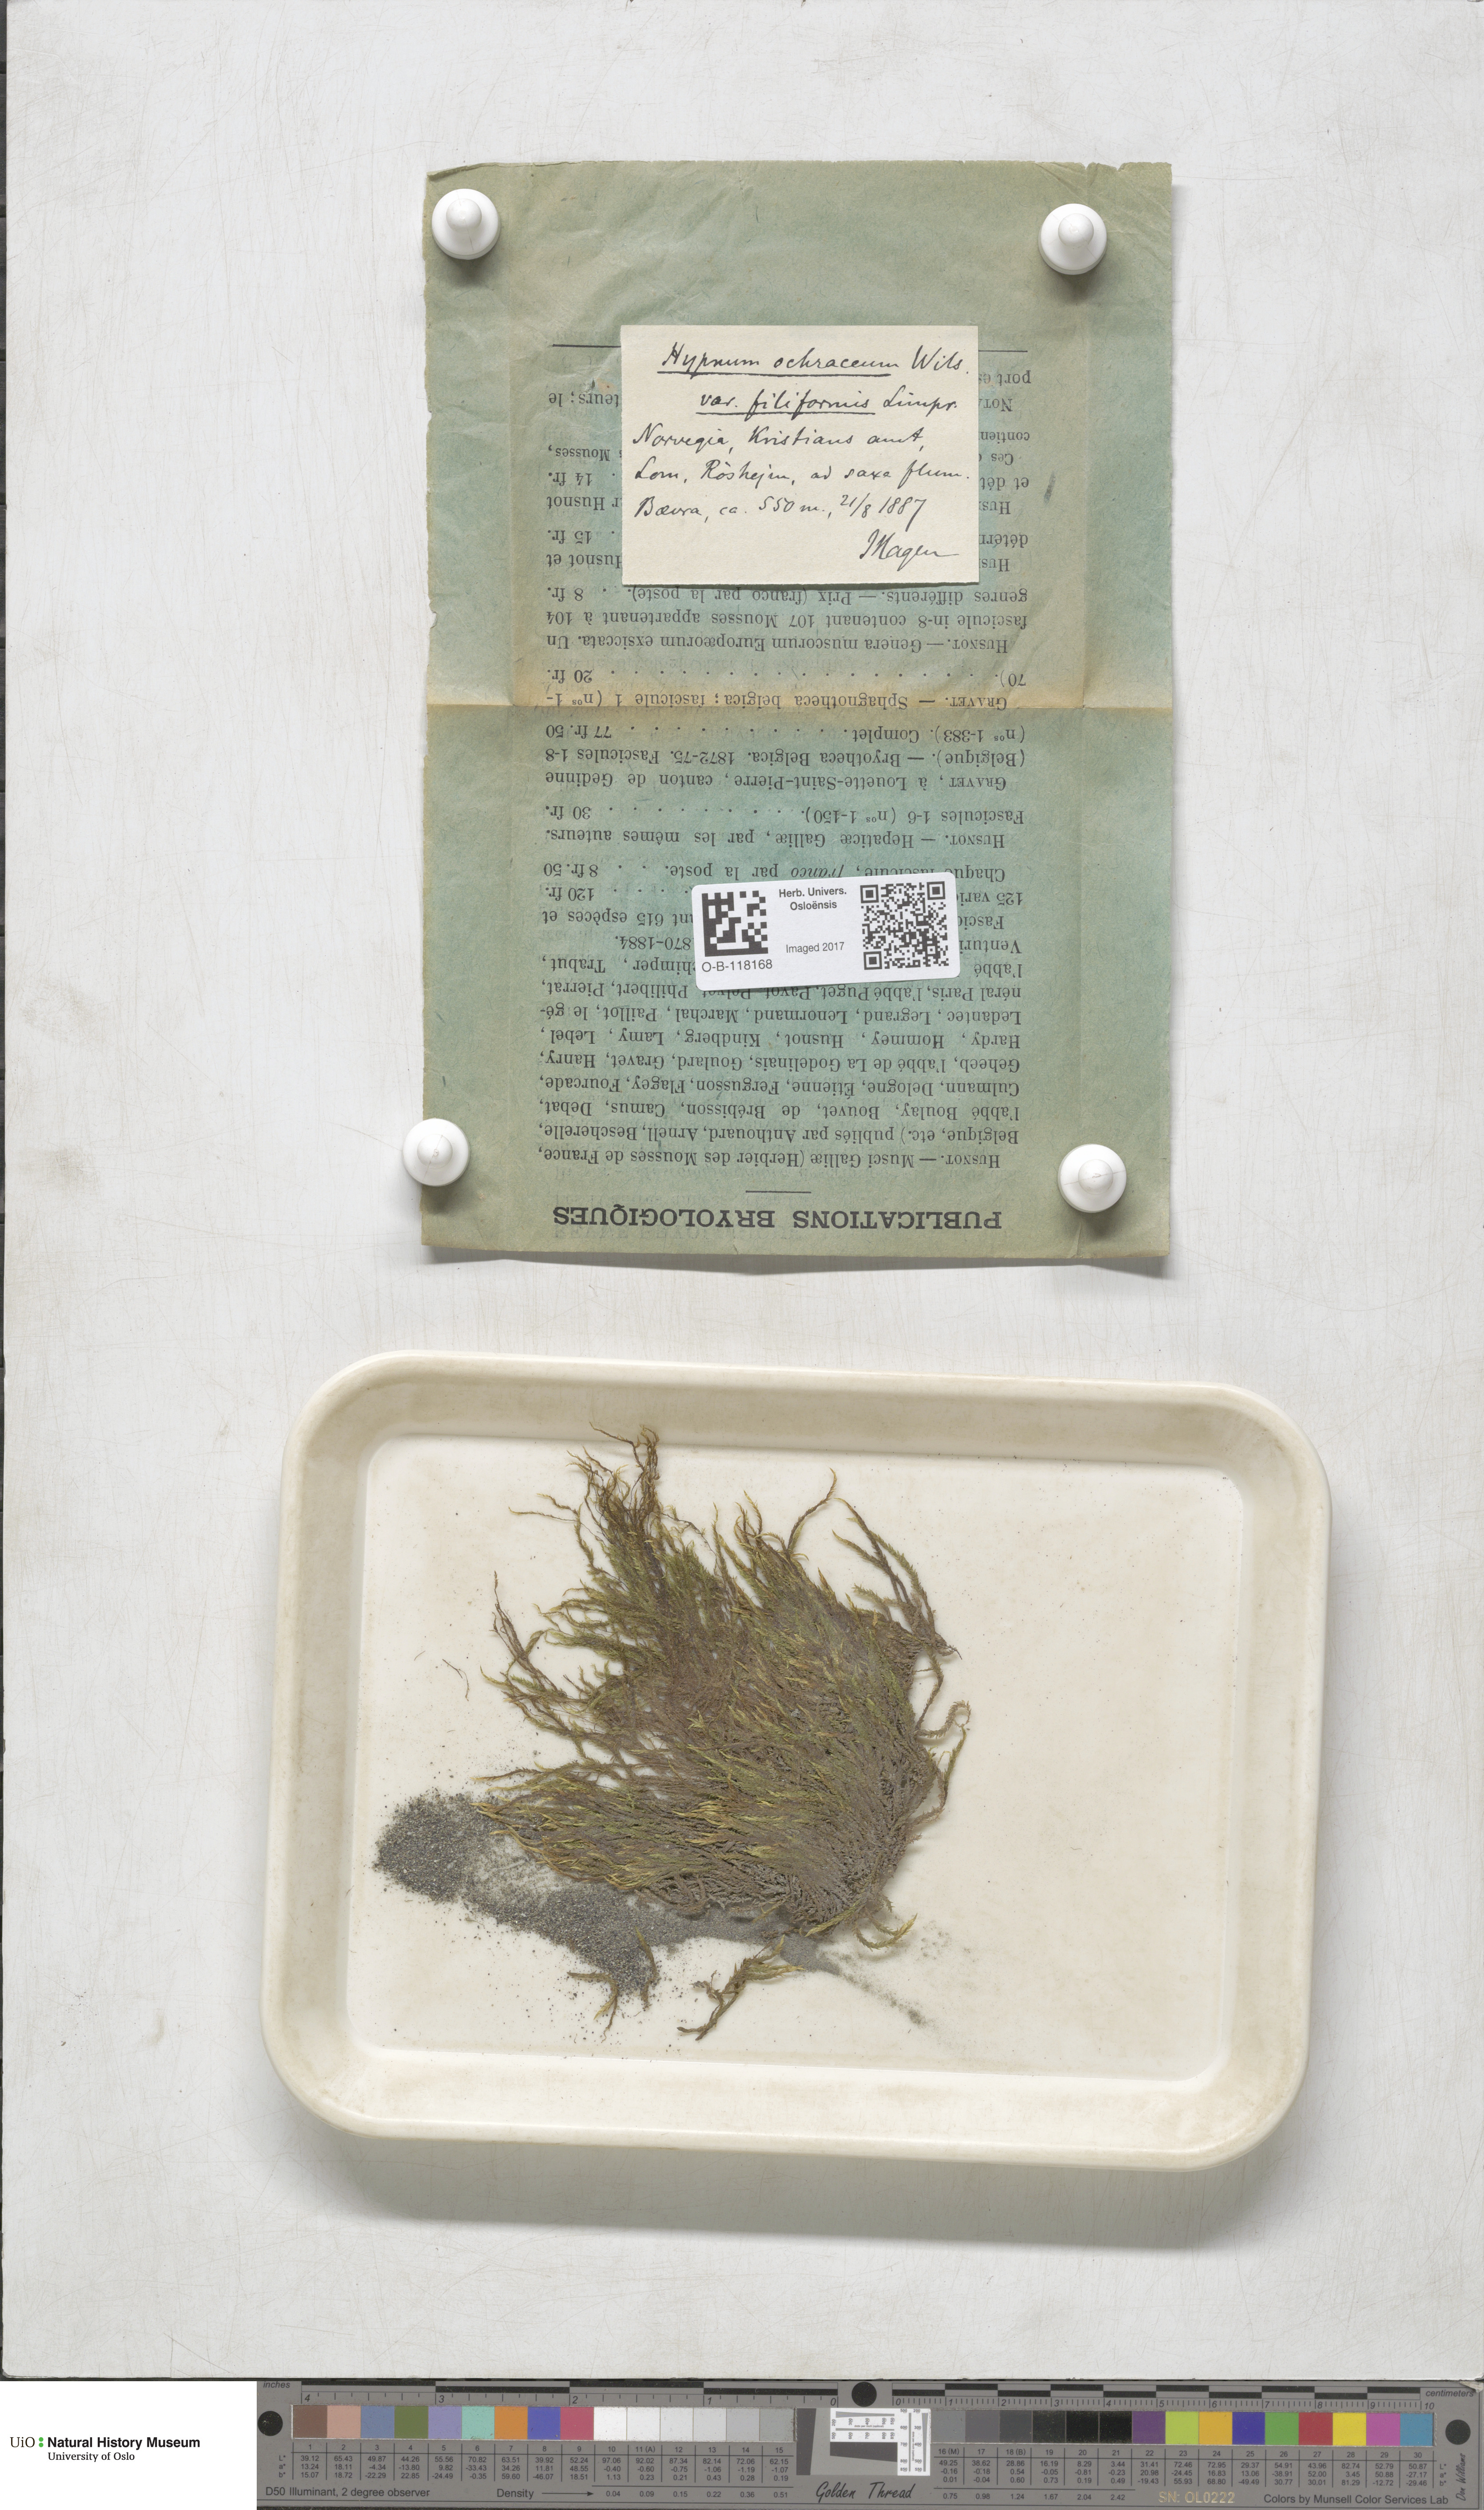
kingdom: Plantae
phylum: Bryophyta
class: Bryopsida
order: Hypnales
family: Scorpidiaceae
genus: Hygrohypnella
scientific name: Hygrohypnella ochracea
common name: Hygrohypnum moss
